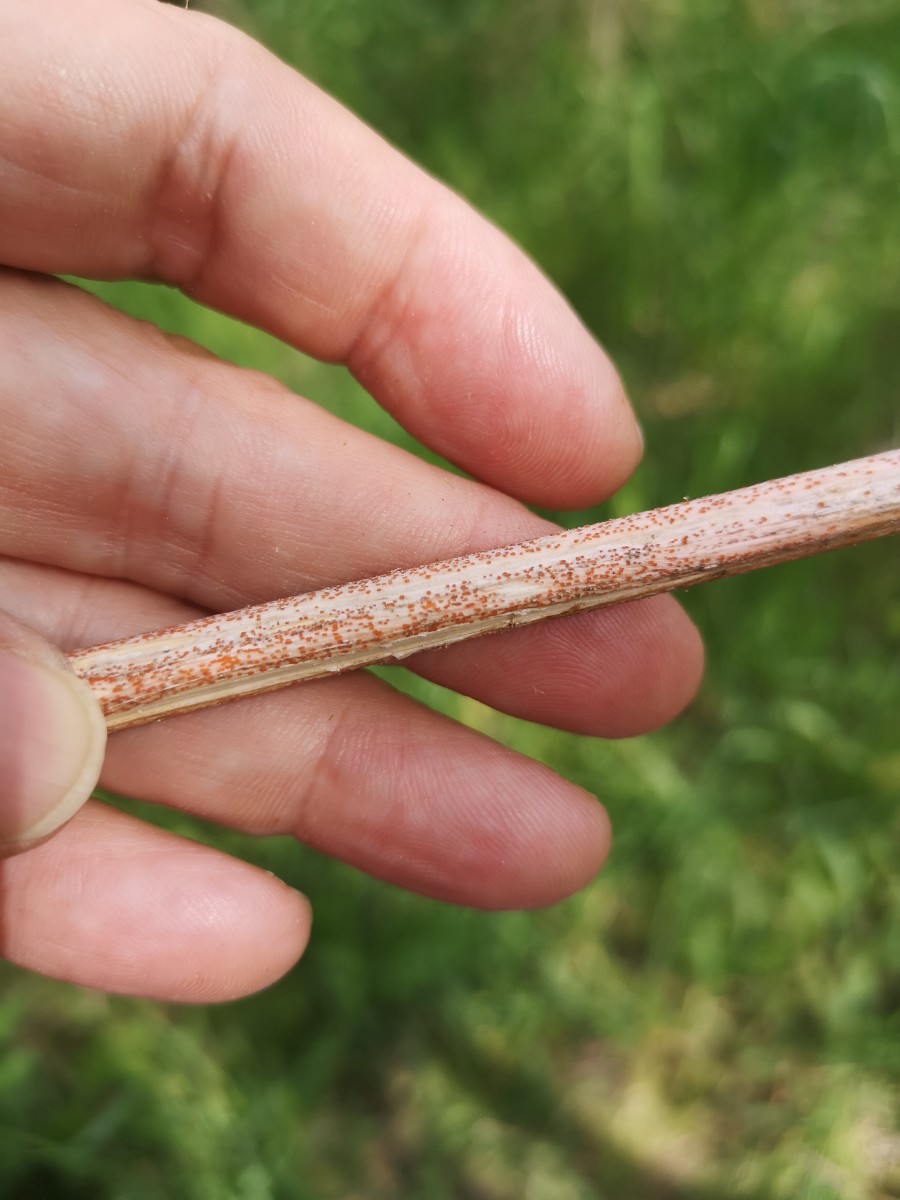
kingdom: Fungi
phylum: Ascomycota
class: Leotiomycetes
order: Helotiales
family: Calloriaceae
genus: Calloria
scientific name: Calloria urticae
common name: nælde-orangeskive
